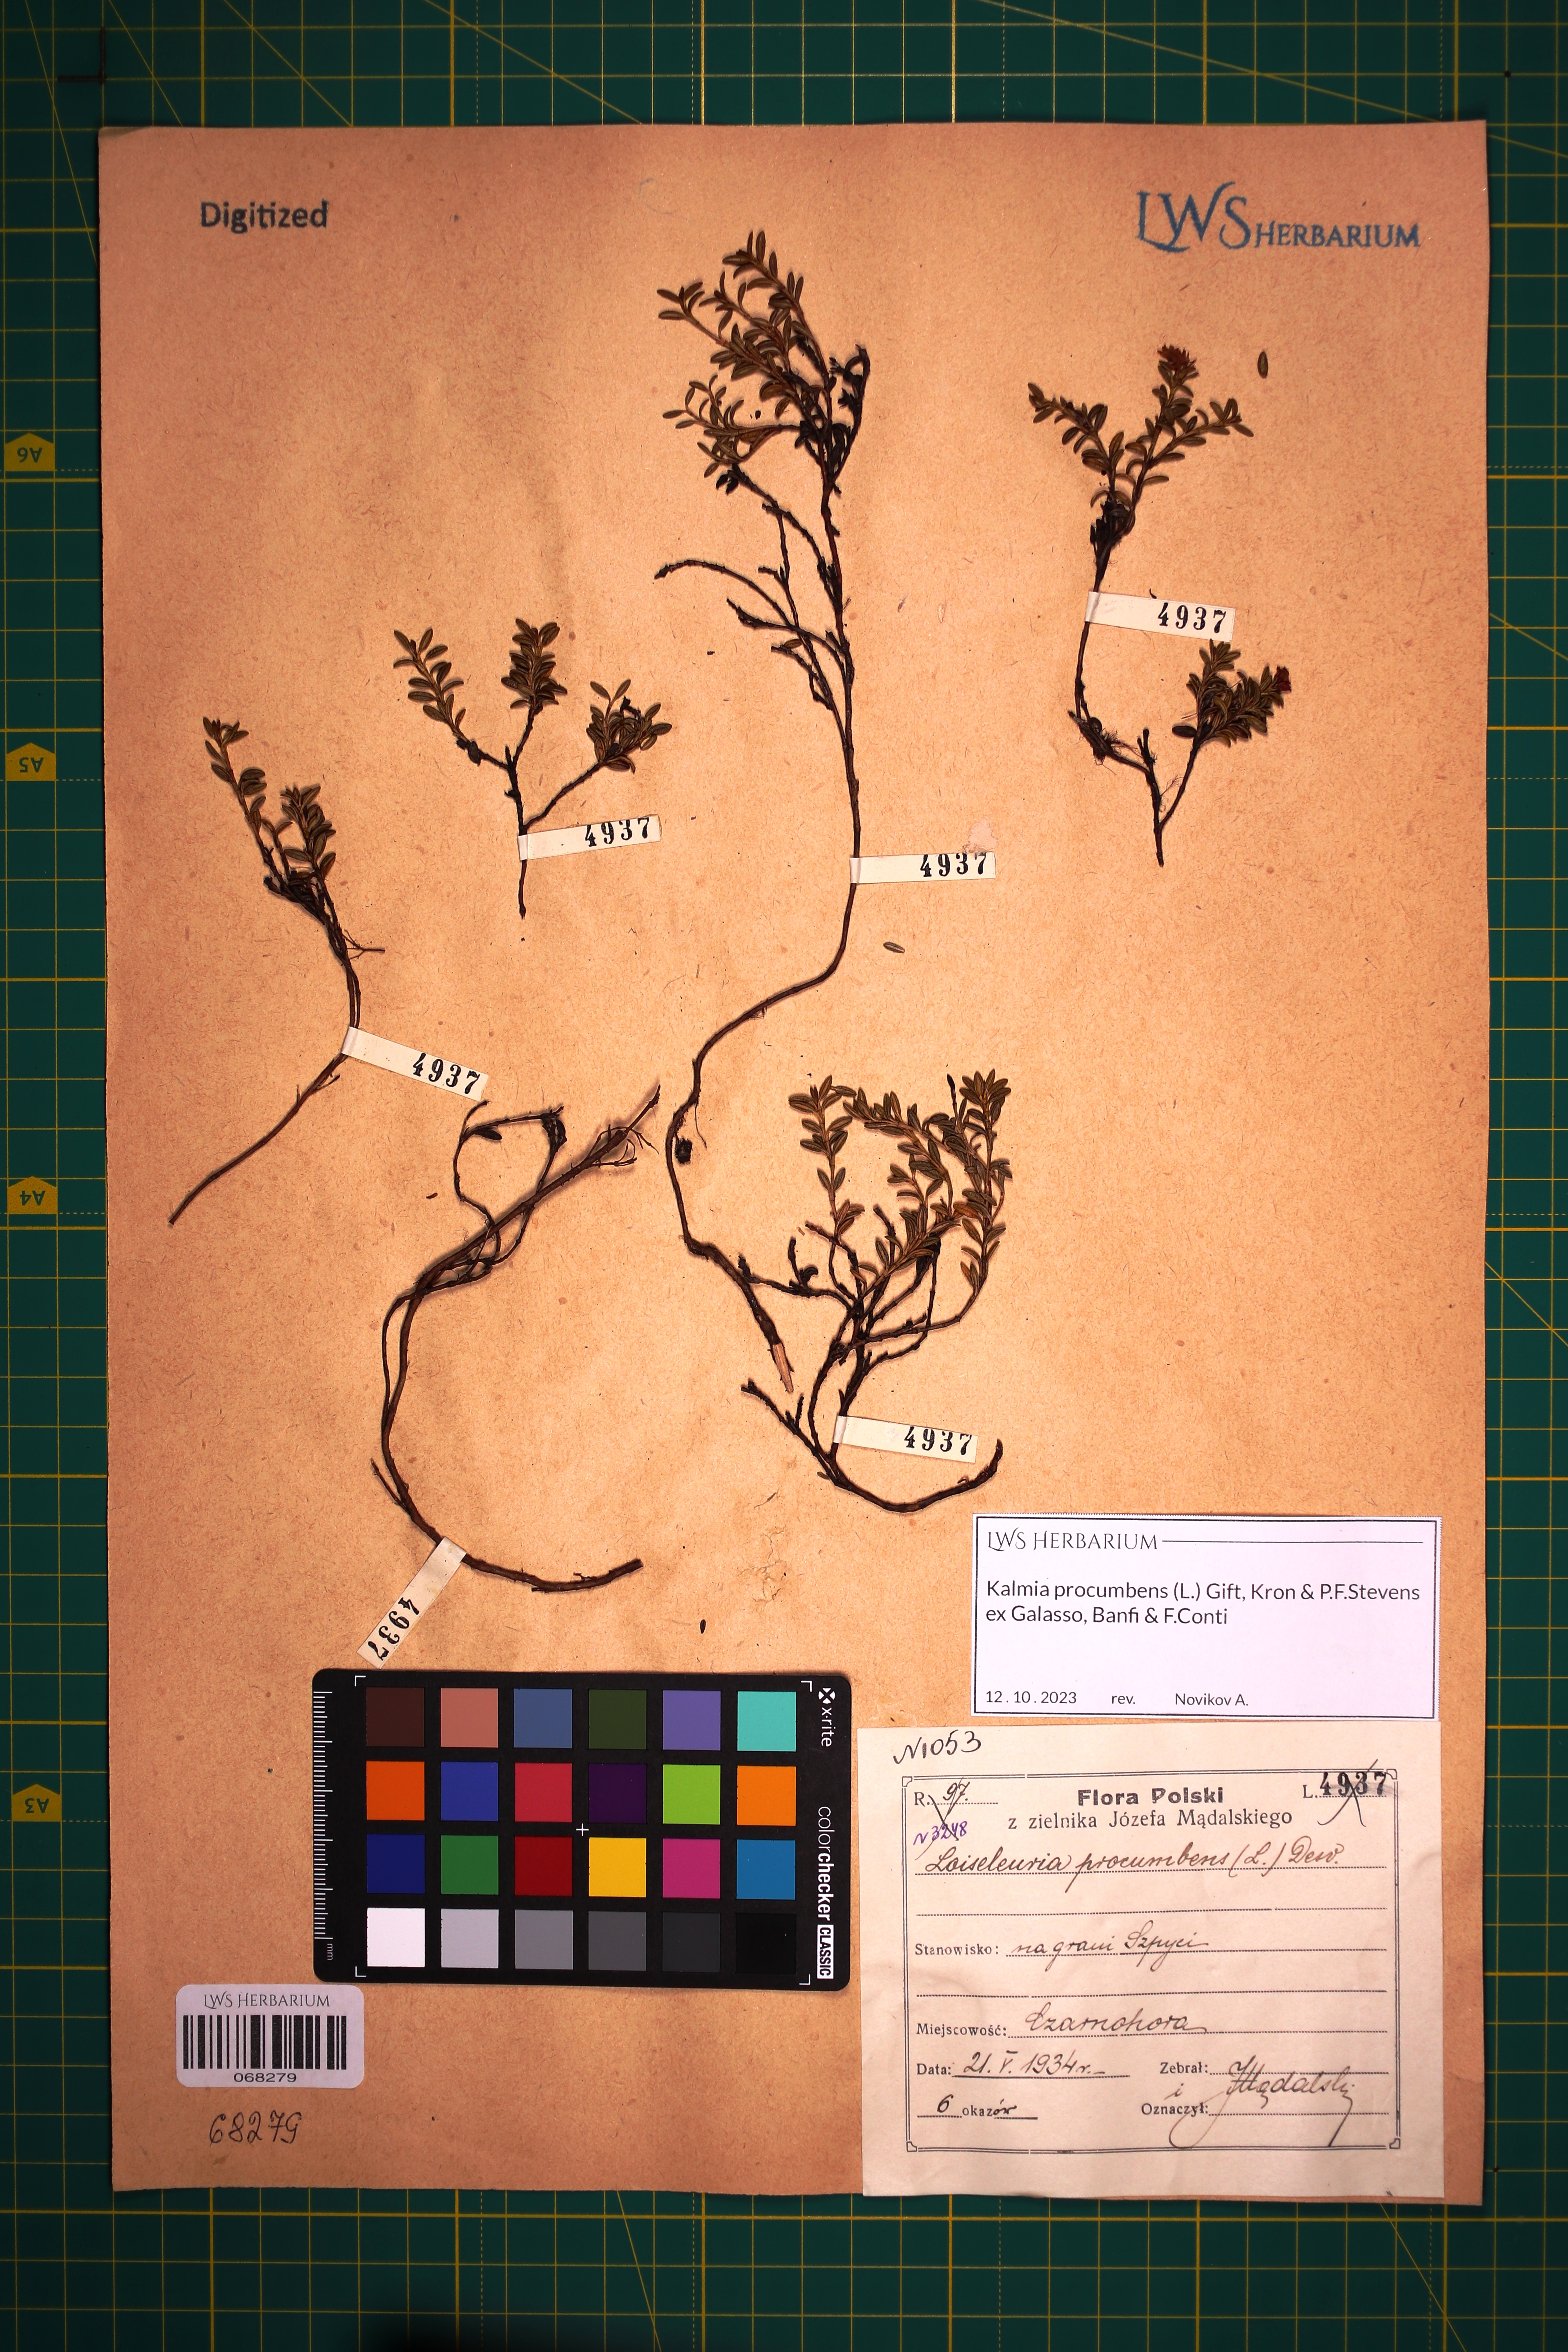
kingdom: Plantae
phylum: Tracheophyta
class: Magnoliopsida
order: Ericales
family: Ericaceae
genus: Kalmia
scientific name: Kalmia procumbens
